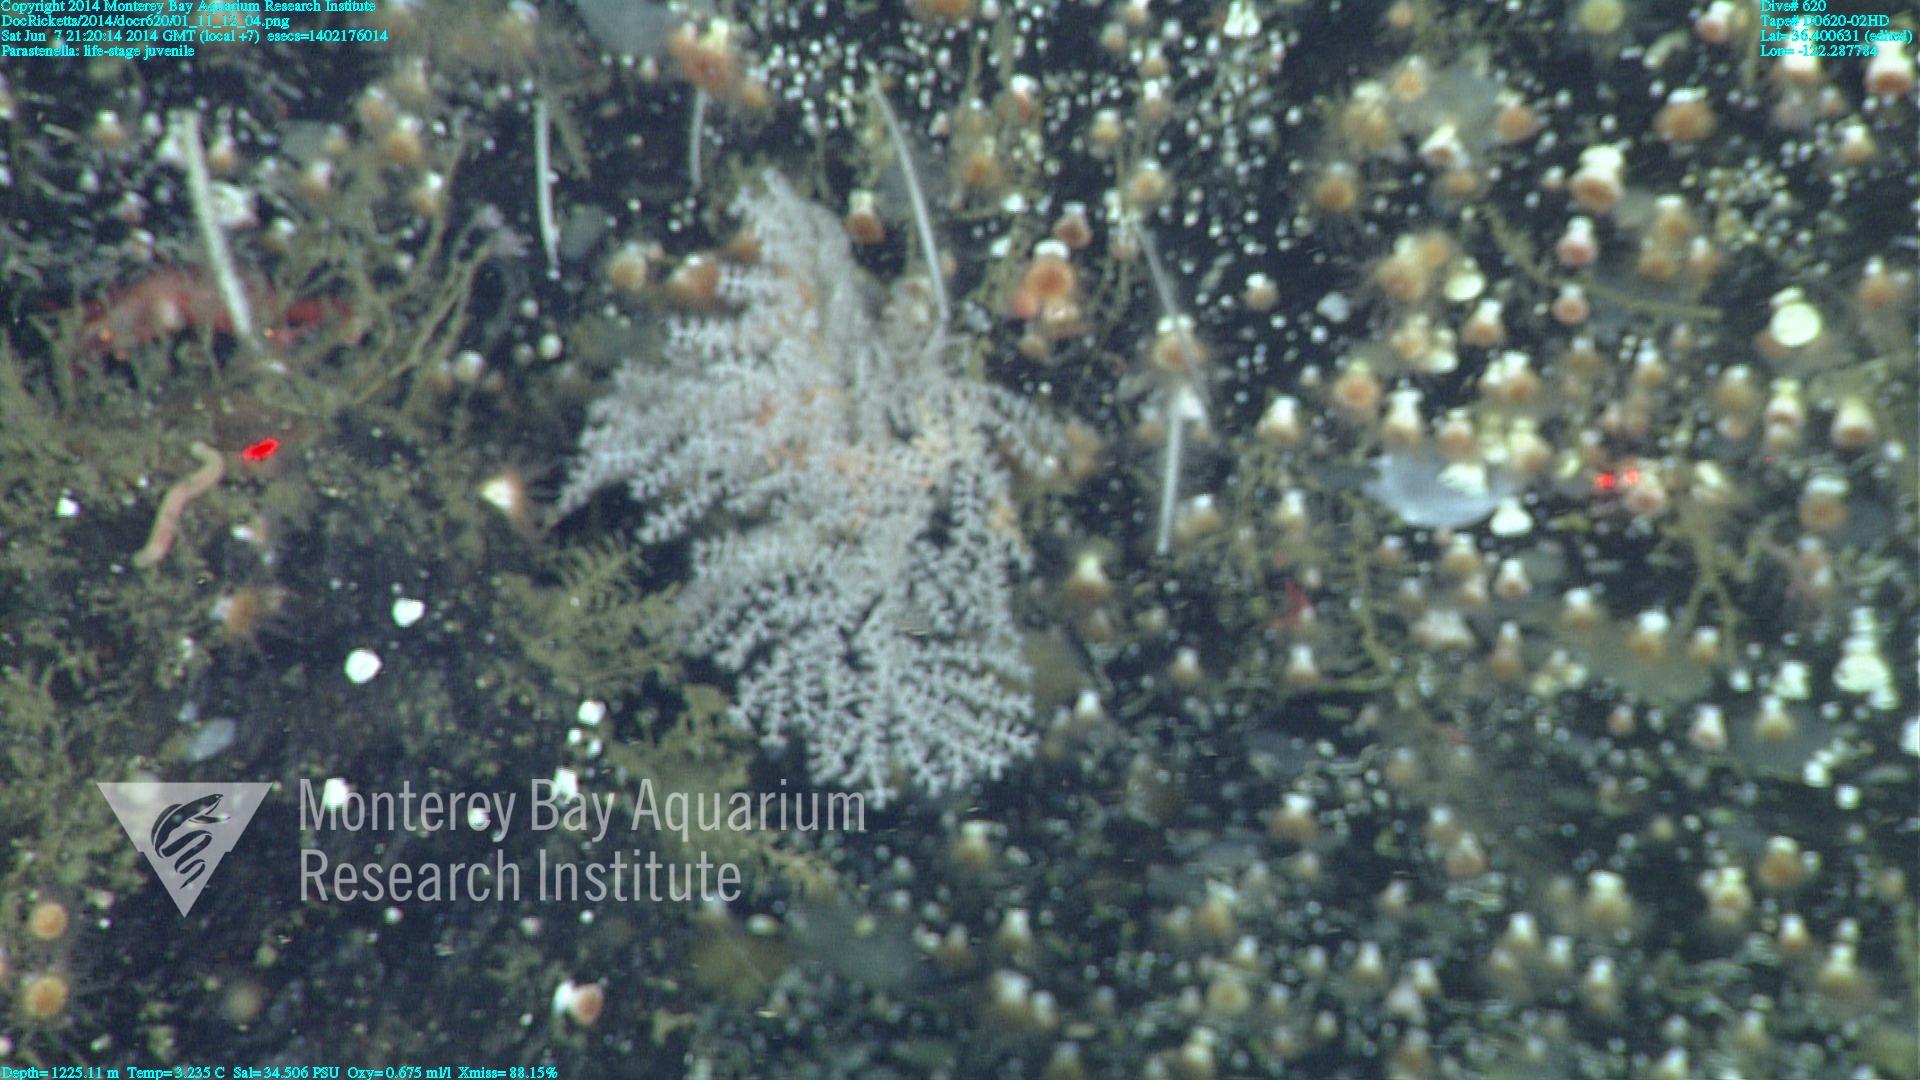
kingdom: Animalia
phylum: Cnidaria
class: Anthozoa
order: Scleralcyonacea
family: Primnoidae
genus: Parastenella
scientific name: Parastenella
